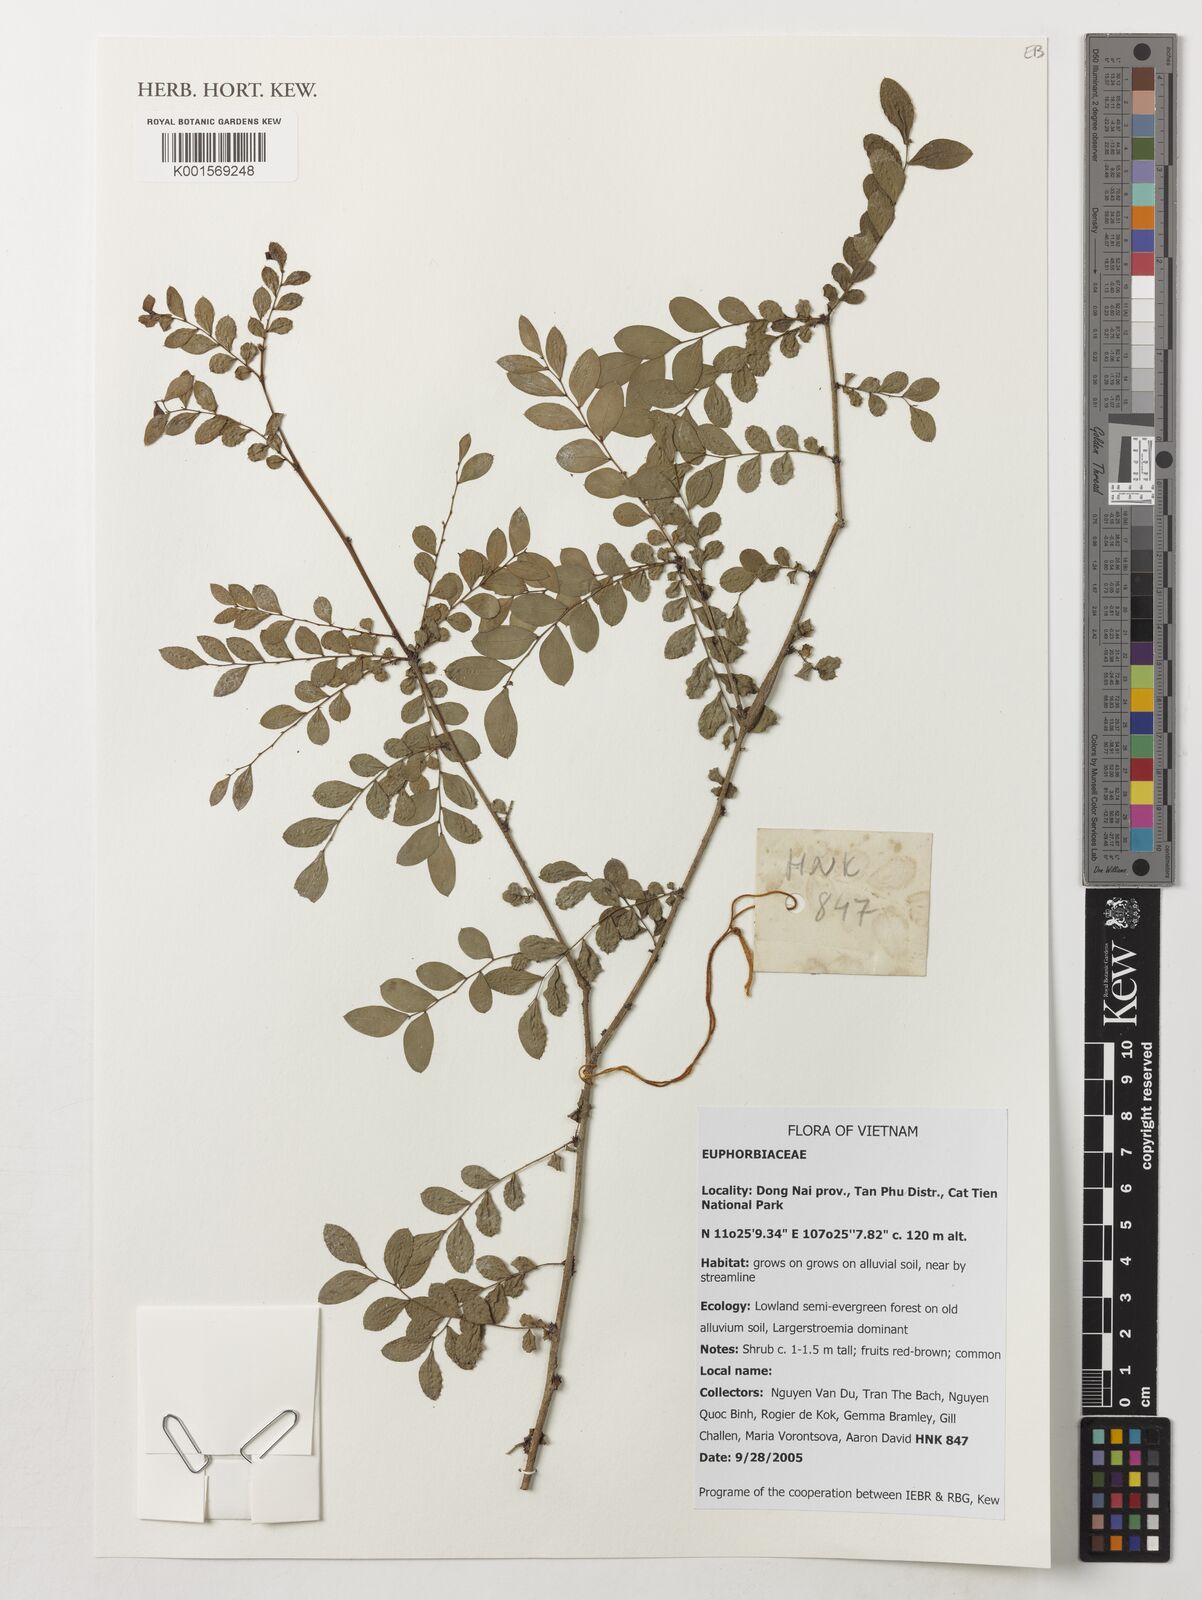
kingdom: Plantae
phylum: Tracheophyta
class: Magnoliopsida
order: Malpighiales
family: Euphorbiaceae
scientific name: Euphorbiaceae
